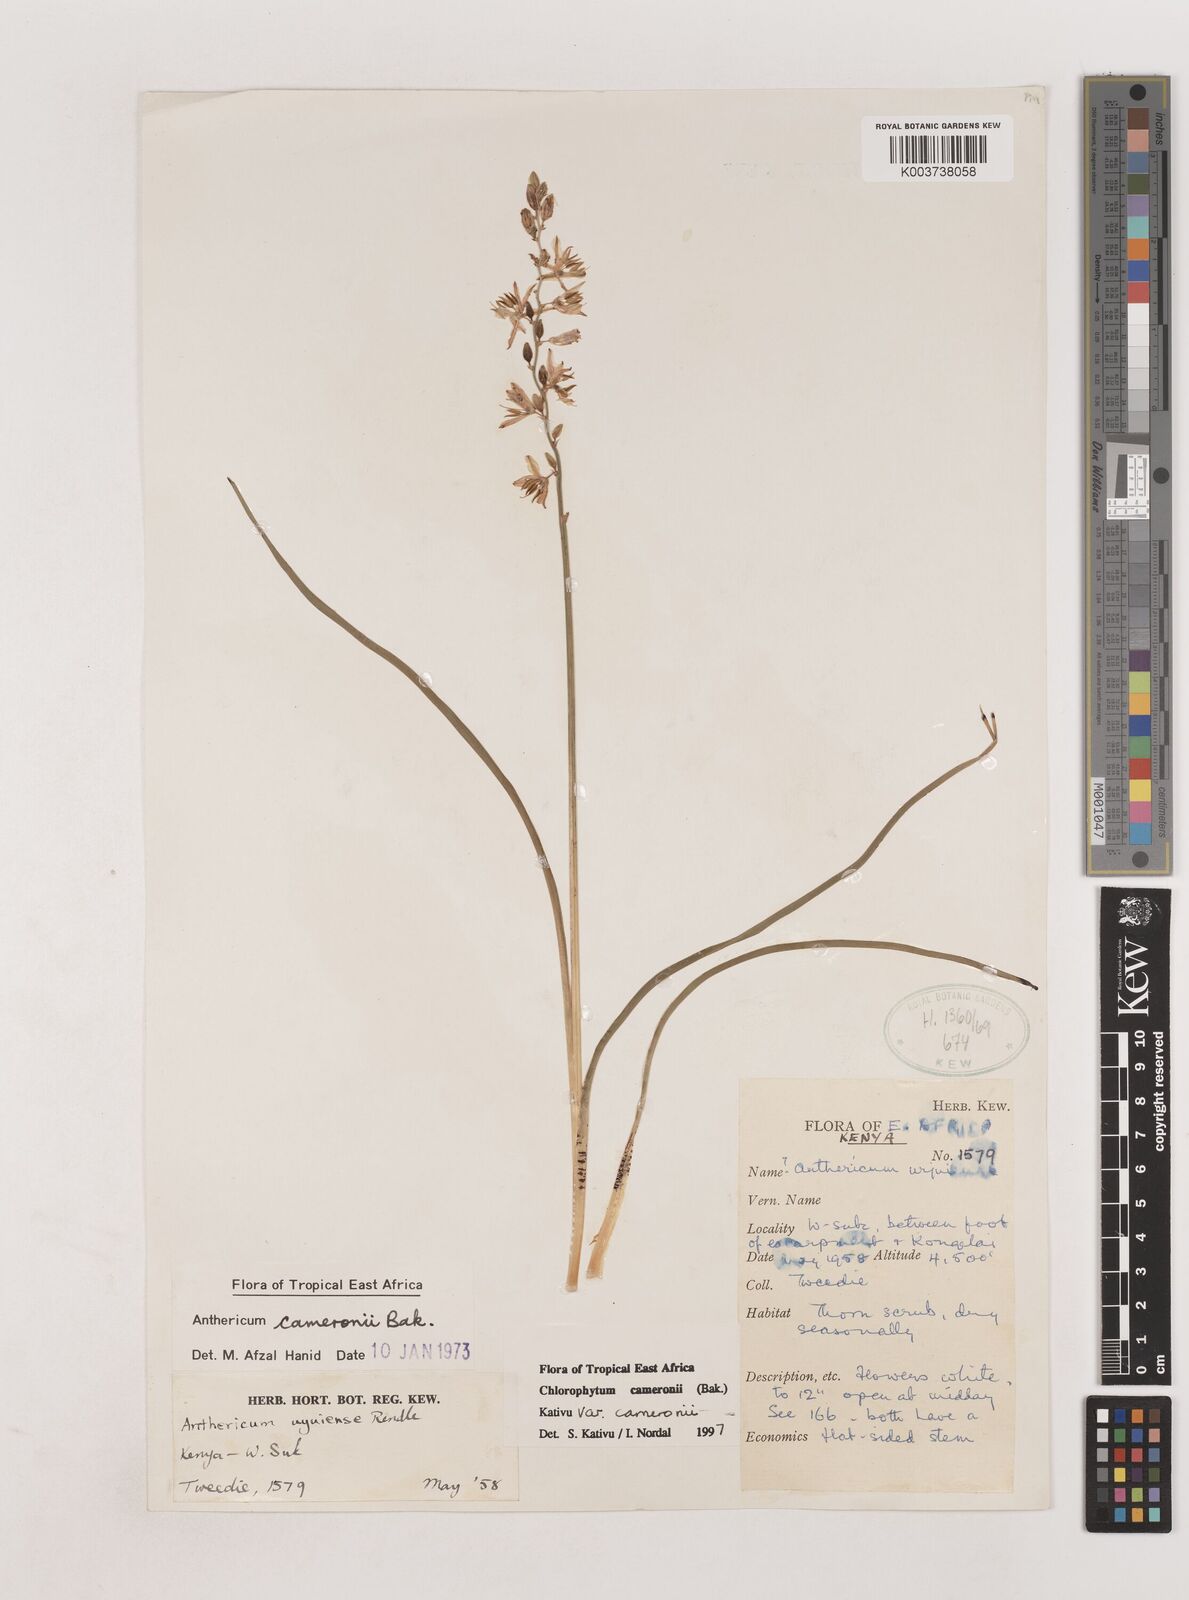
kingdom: Plantae
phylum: Tracheophyta
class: Liliopsida
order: Asparagales
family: Asparagaceae
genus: Chlorophytum
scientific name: Chlorophytum cameronii
